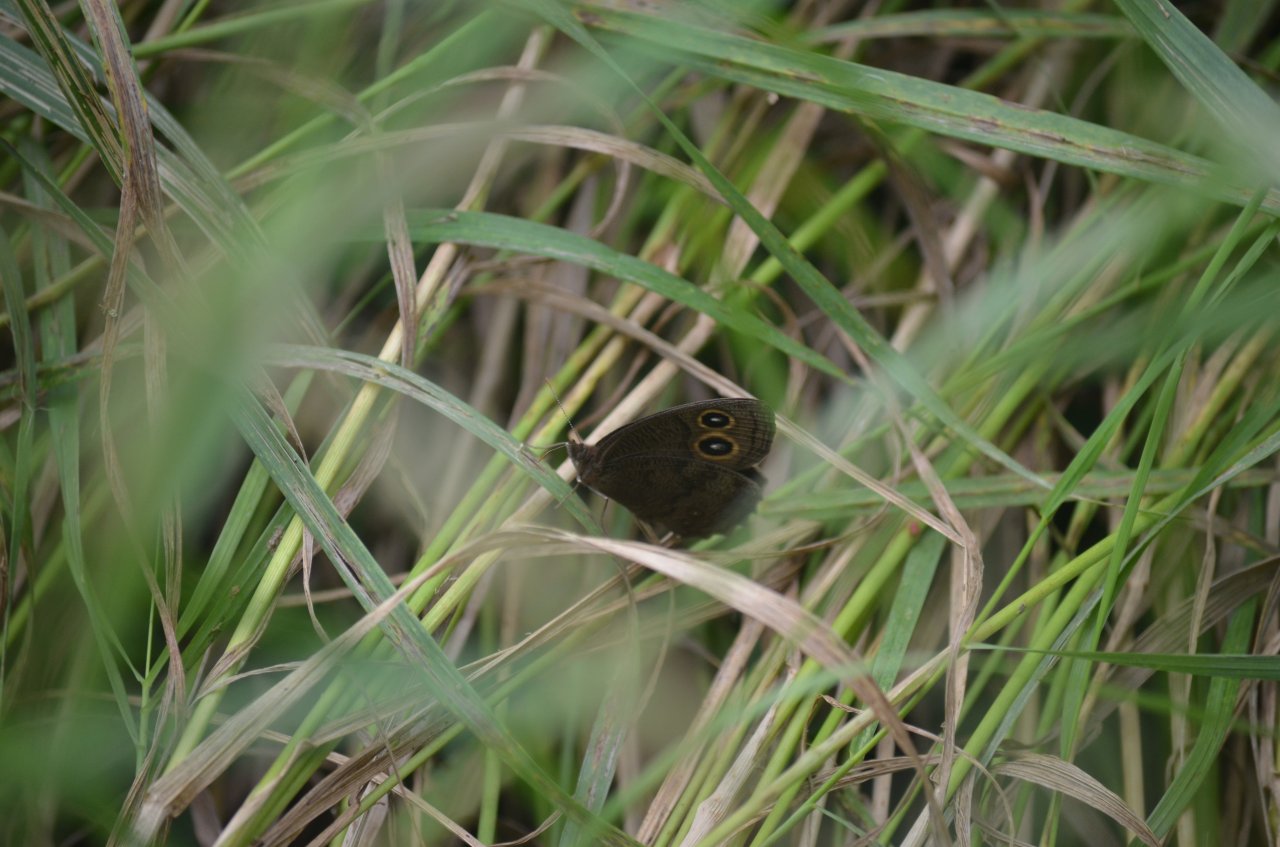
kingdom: Animalia
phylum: Arthropoda
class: Insecta
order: Lepidoptera
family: Nymphalidae
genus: Cercyonis
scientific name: Cercyonis pegala
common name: Common Wood-Nymph
